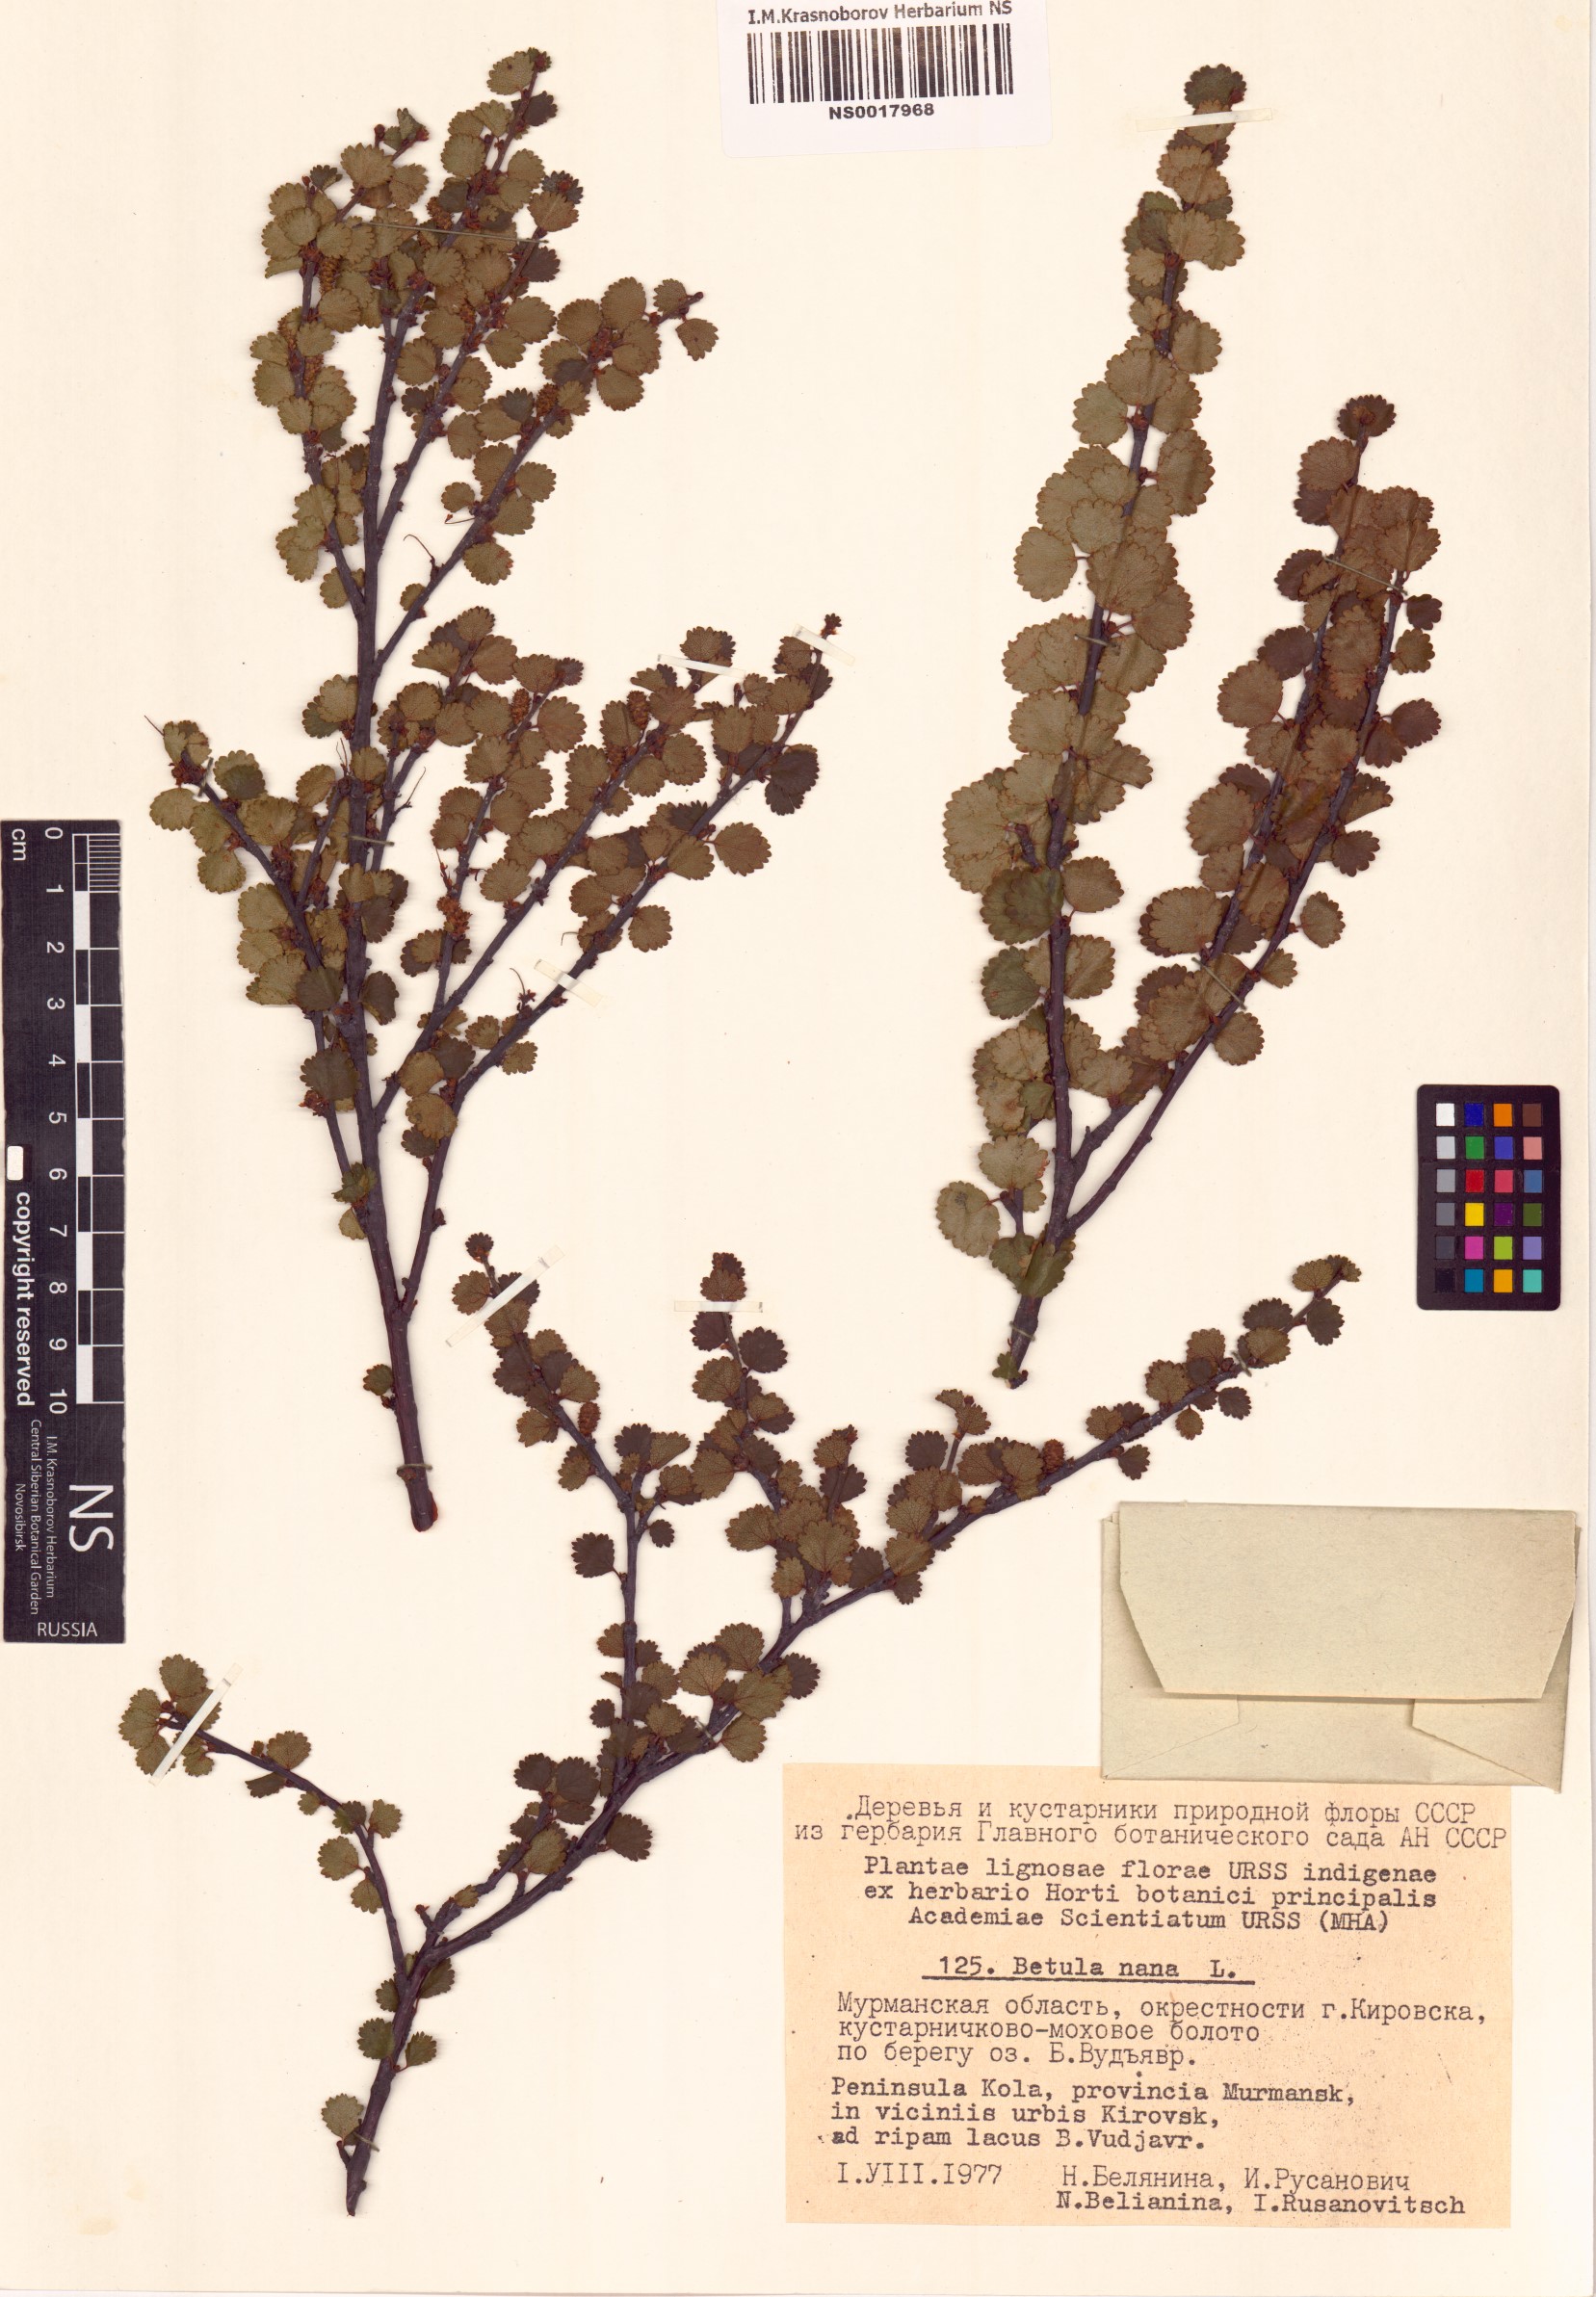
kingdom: Plantae
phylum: Tracheophyta
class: Magnoliopsida
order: Fagales
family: Betulaceae
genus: Betula
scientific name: Betula nana
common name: Arctic dwarf birch
